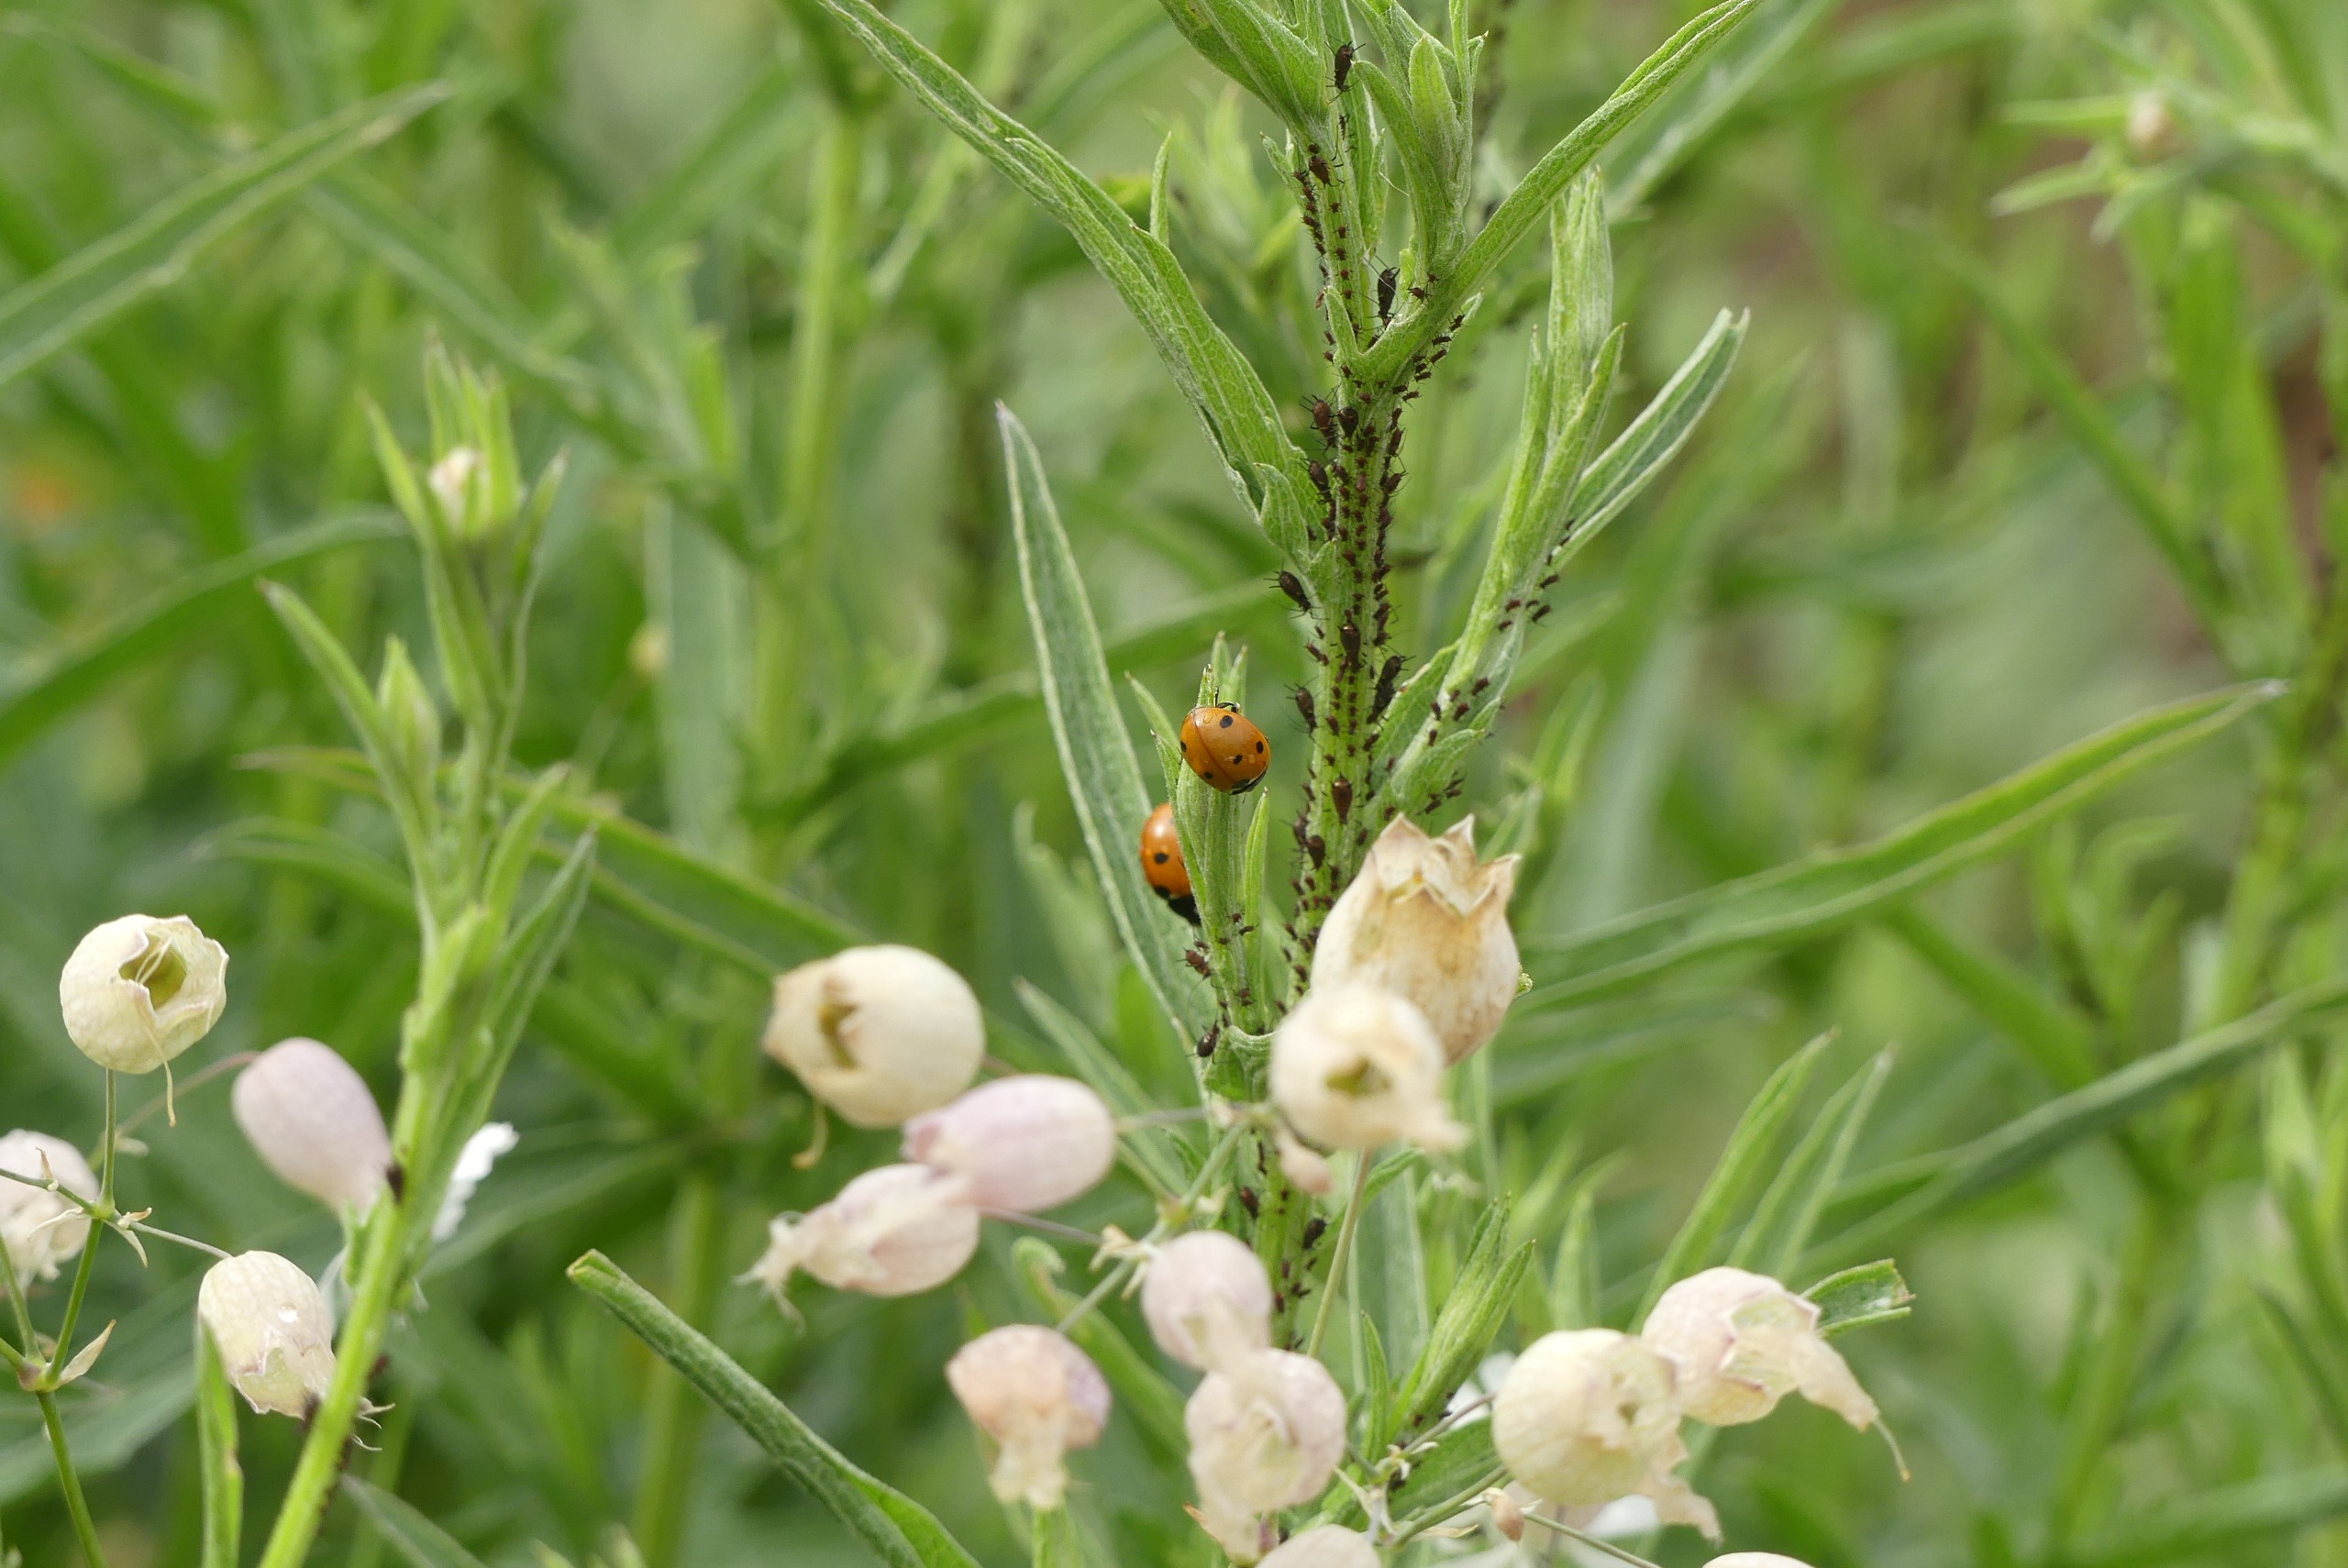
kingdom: Animalia
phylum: Arthropoda
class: Insecta
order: Coleoptera
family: Coccinellidae
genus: Coccinella
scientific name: Coccinella septempunctata
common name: Syvplettet mariehøne
